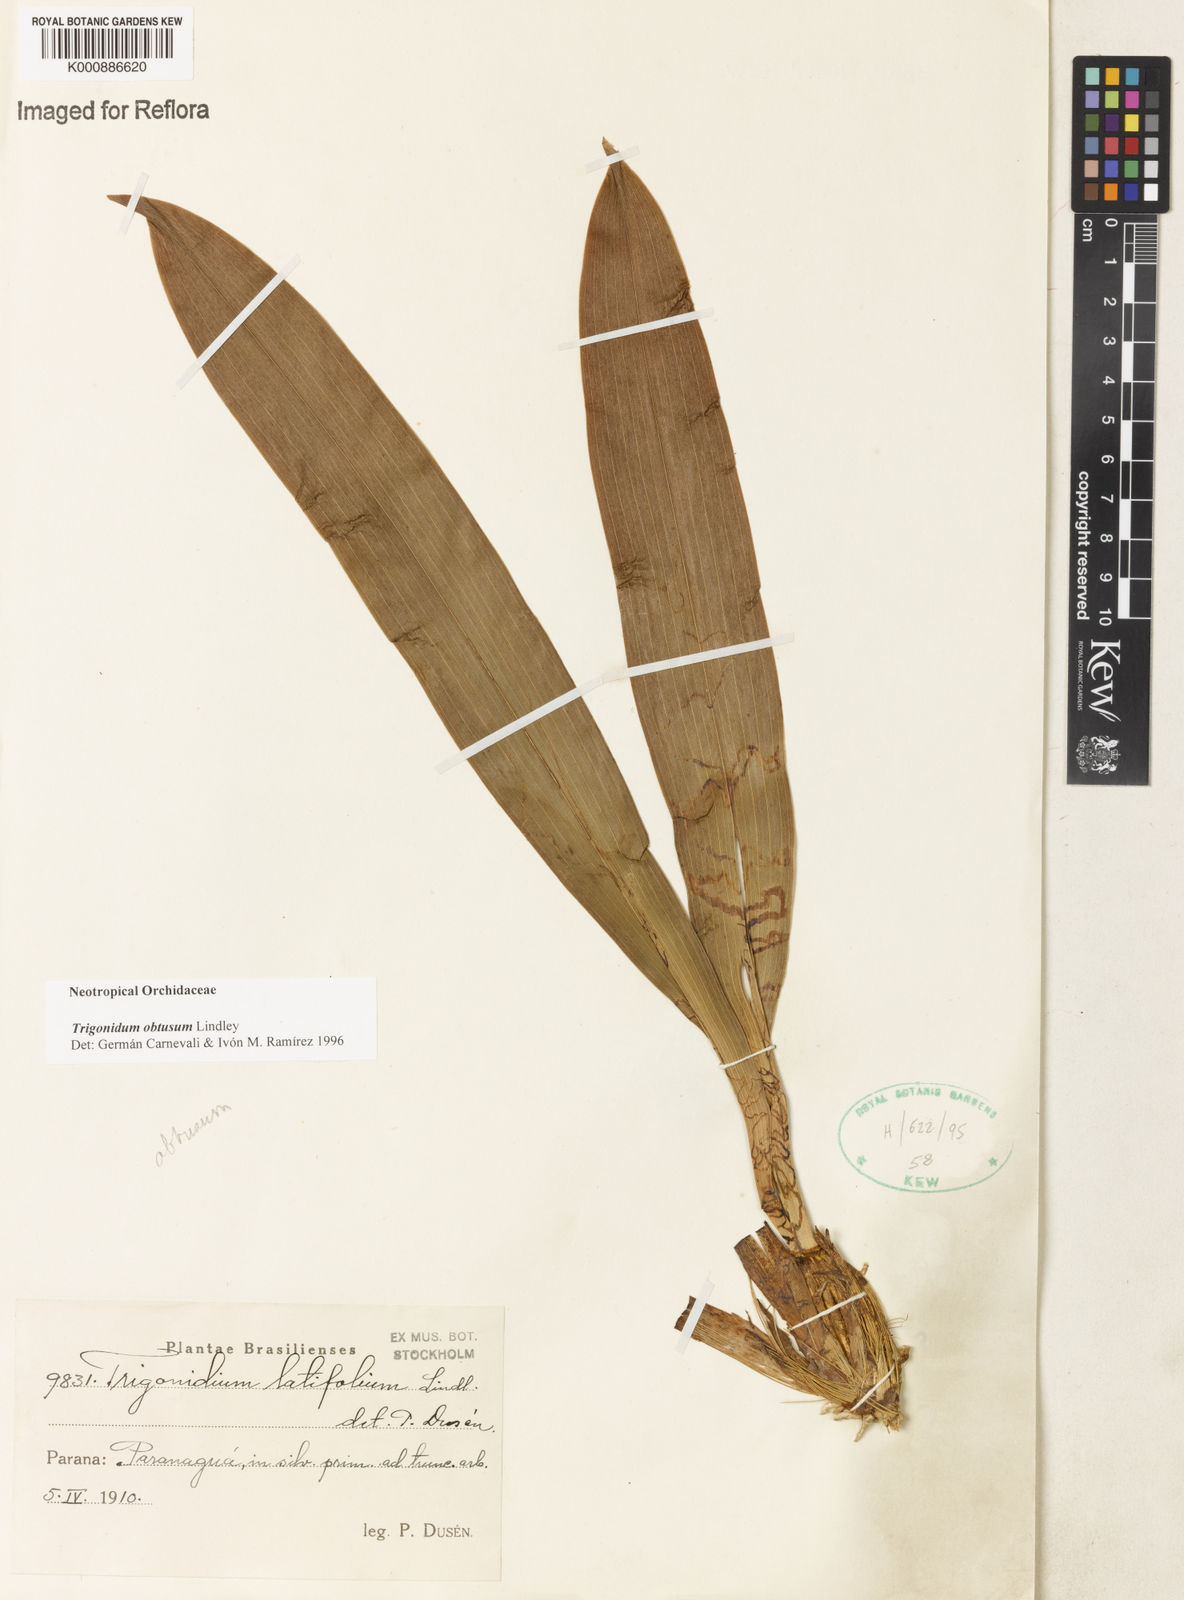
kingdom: Plantae
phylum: Tracheophyta
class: Liliopsida
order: Asparagales
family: Orchidaceae
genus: Maxillaria
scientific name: Maxillaria obtusa
